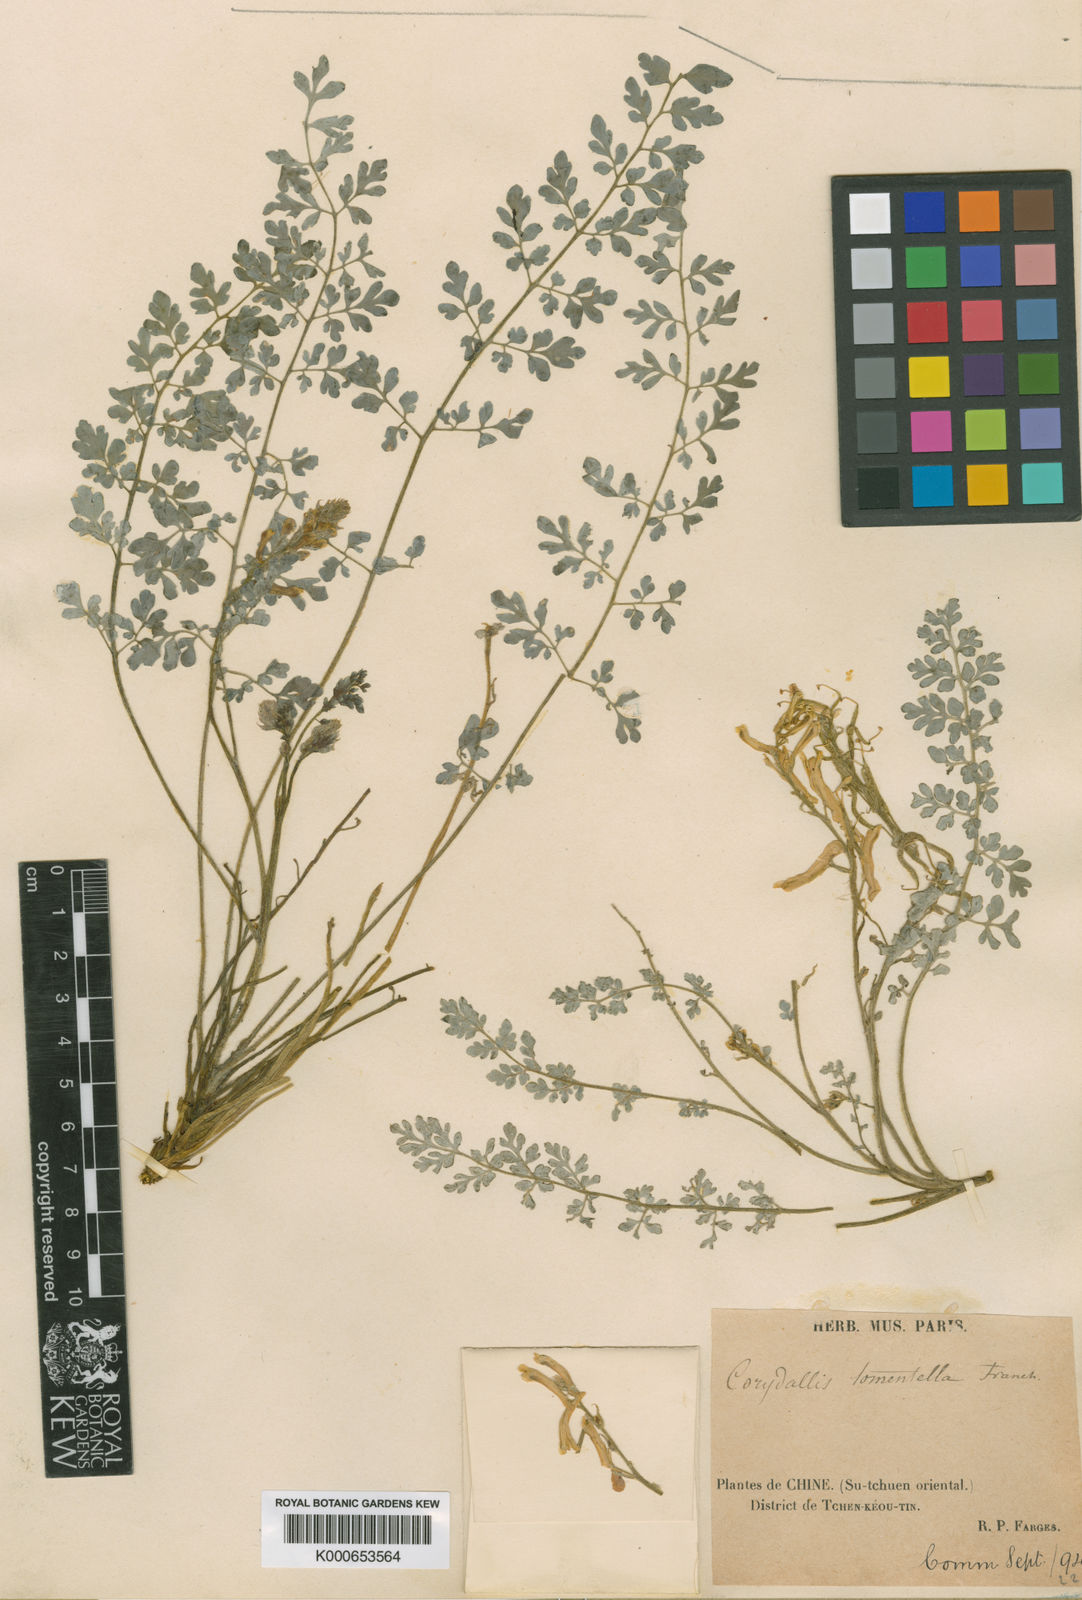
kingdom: Plantae
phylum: Tracheophyta
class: Magnoliopsida
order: Ranunculales
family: Papaveraceae
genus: Corydalis
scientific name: Corydalis tomentella
